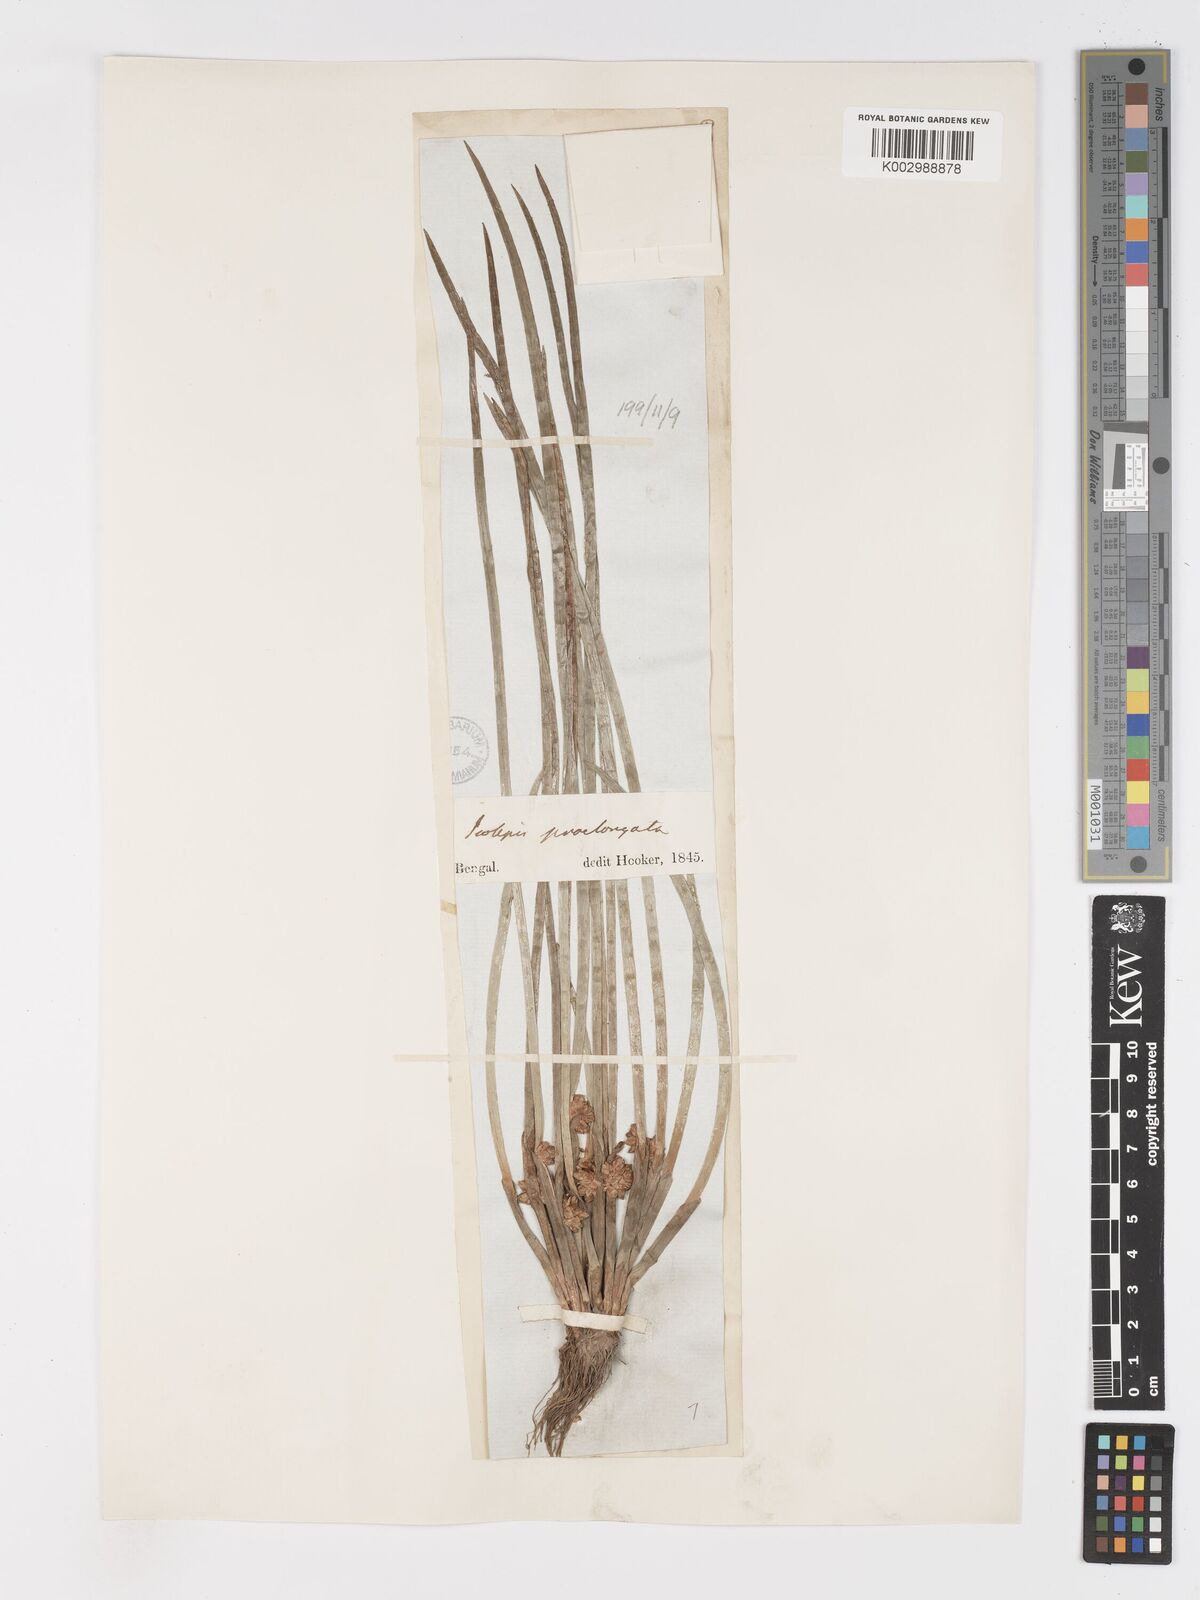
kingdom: Plantae
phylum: Tracheophyta
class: Liliopsida
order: Poales
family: Cyperaceae
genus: Schoenoplectiella
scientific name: Schoenoplectiella praelongata
